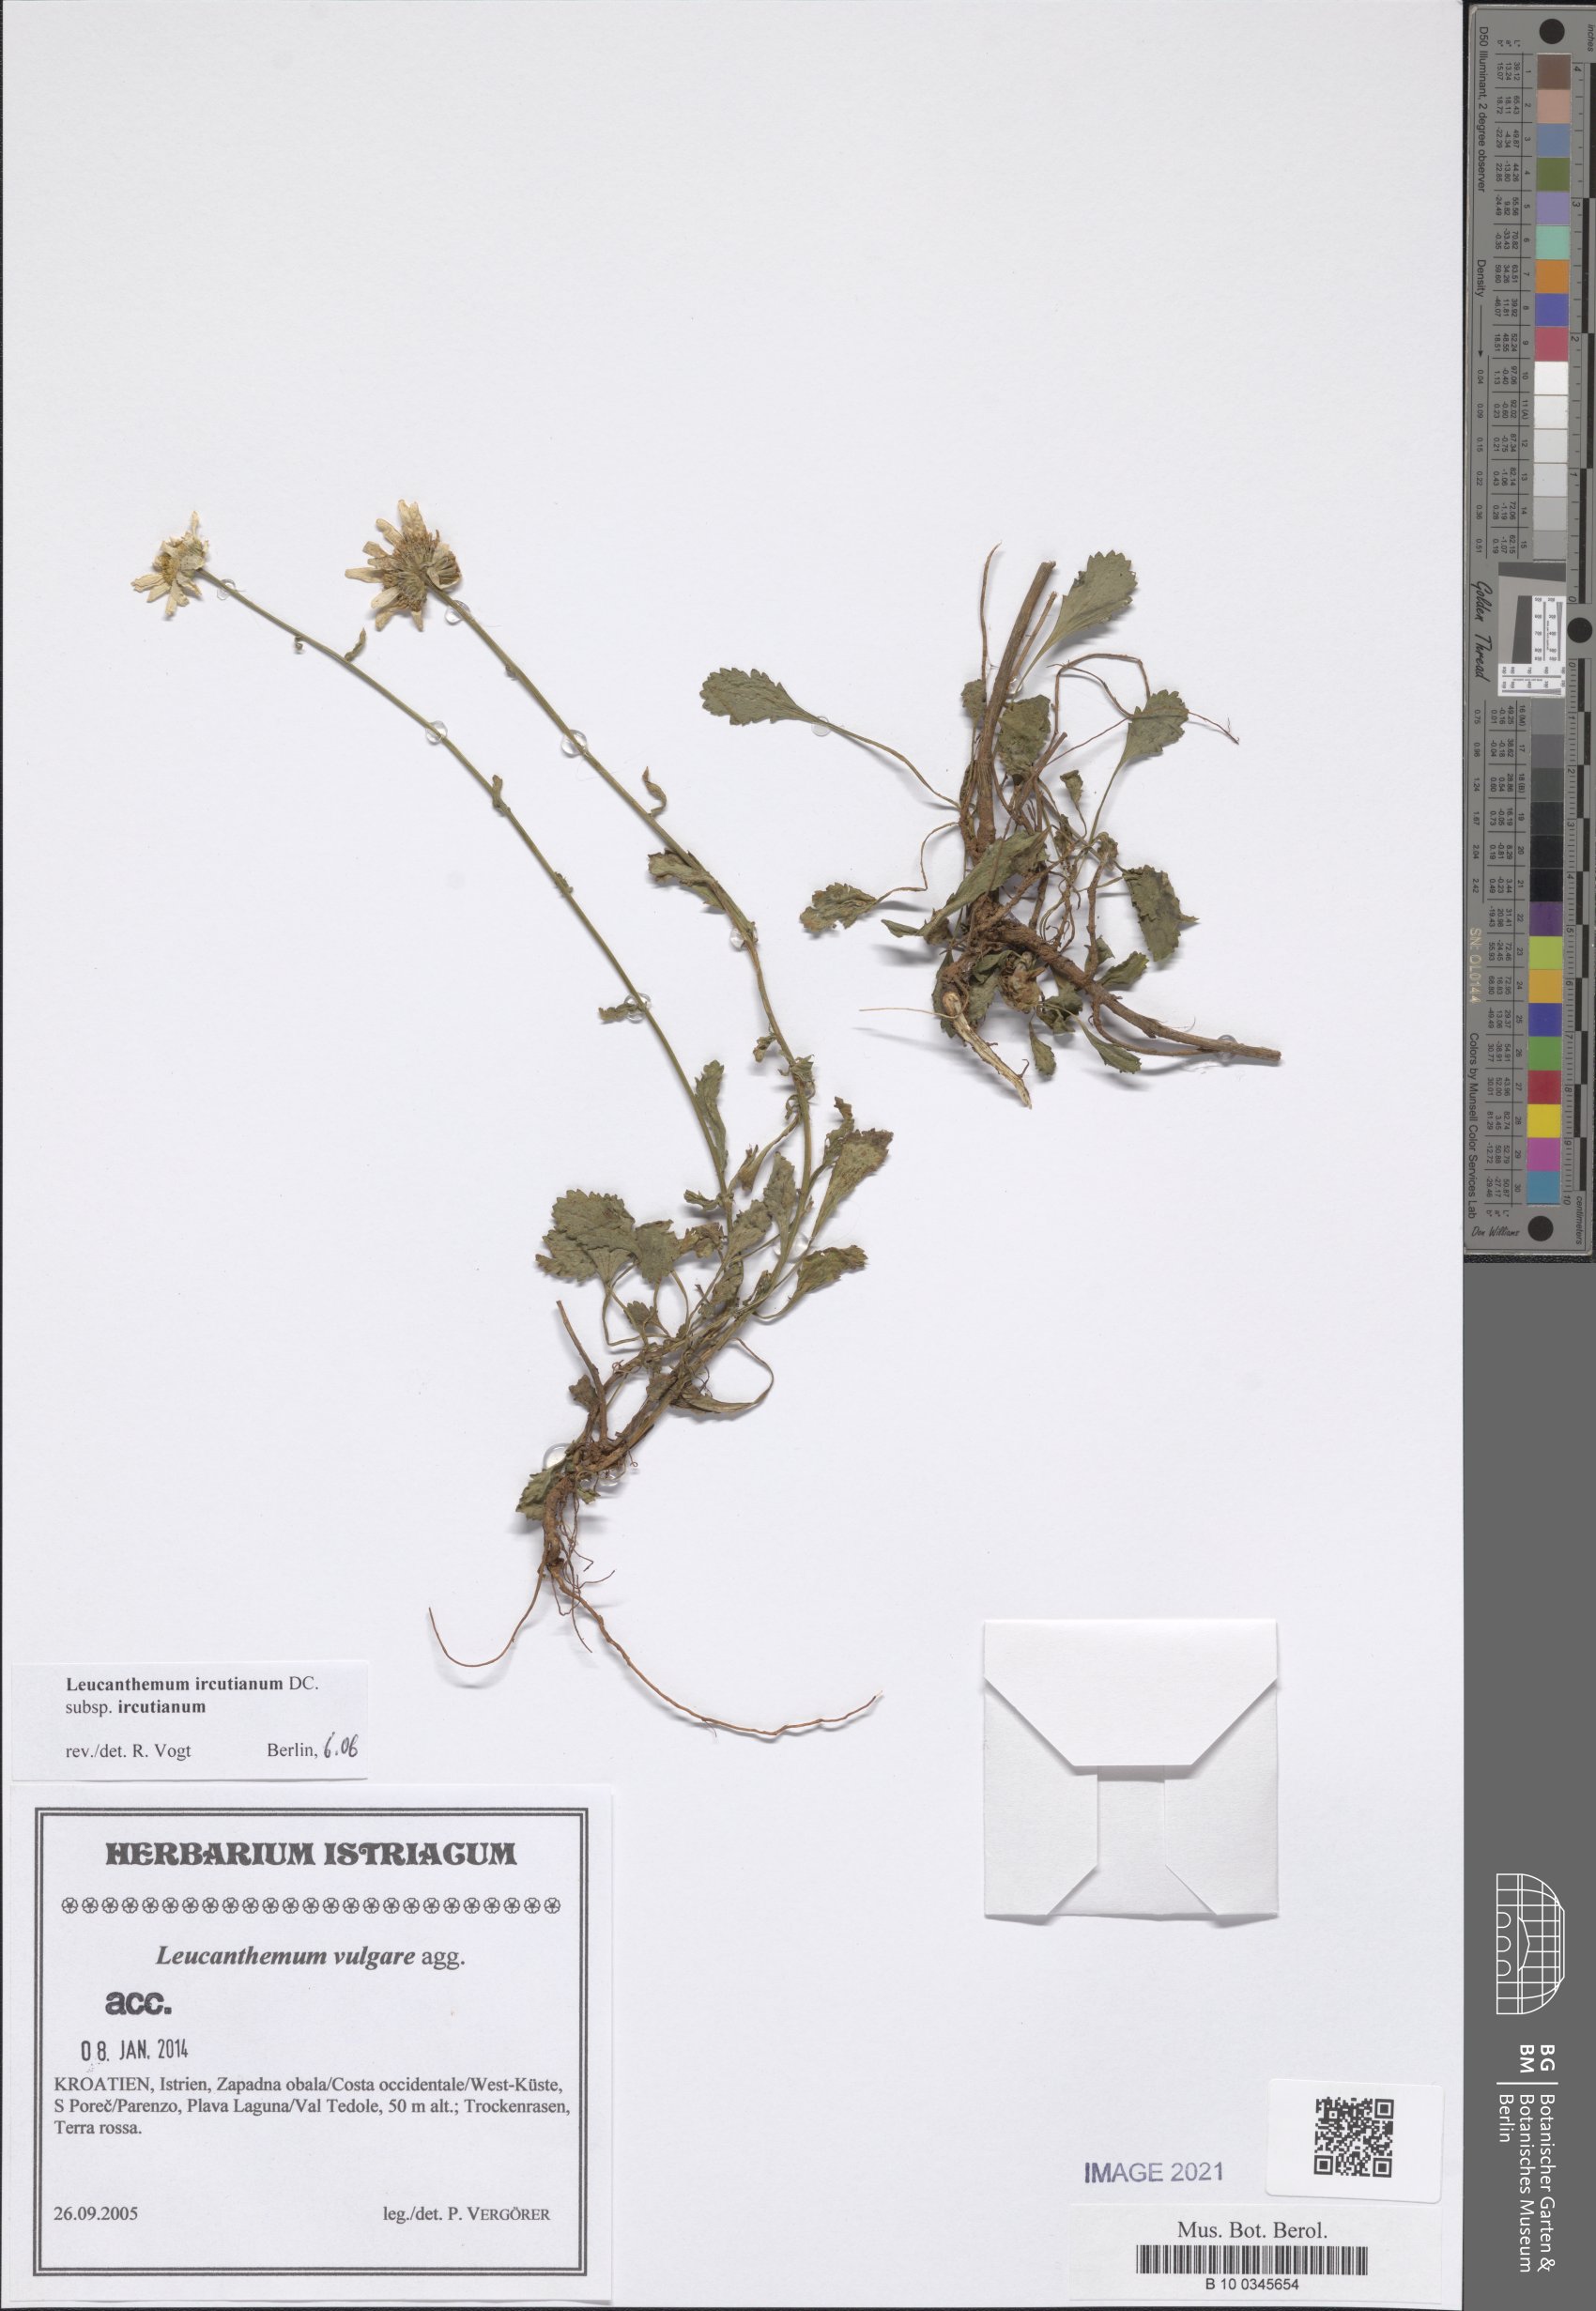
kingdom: Plantae
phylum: Tracheophyta
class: Magnoliopsida
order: Asterales
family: Asteraceae
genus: Leucanthemum
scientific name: Leucanthemum ircutianum
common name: Daisy
